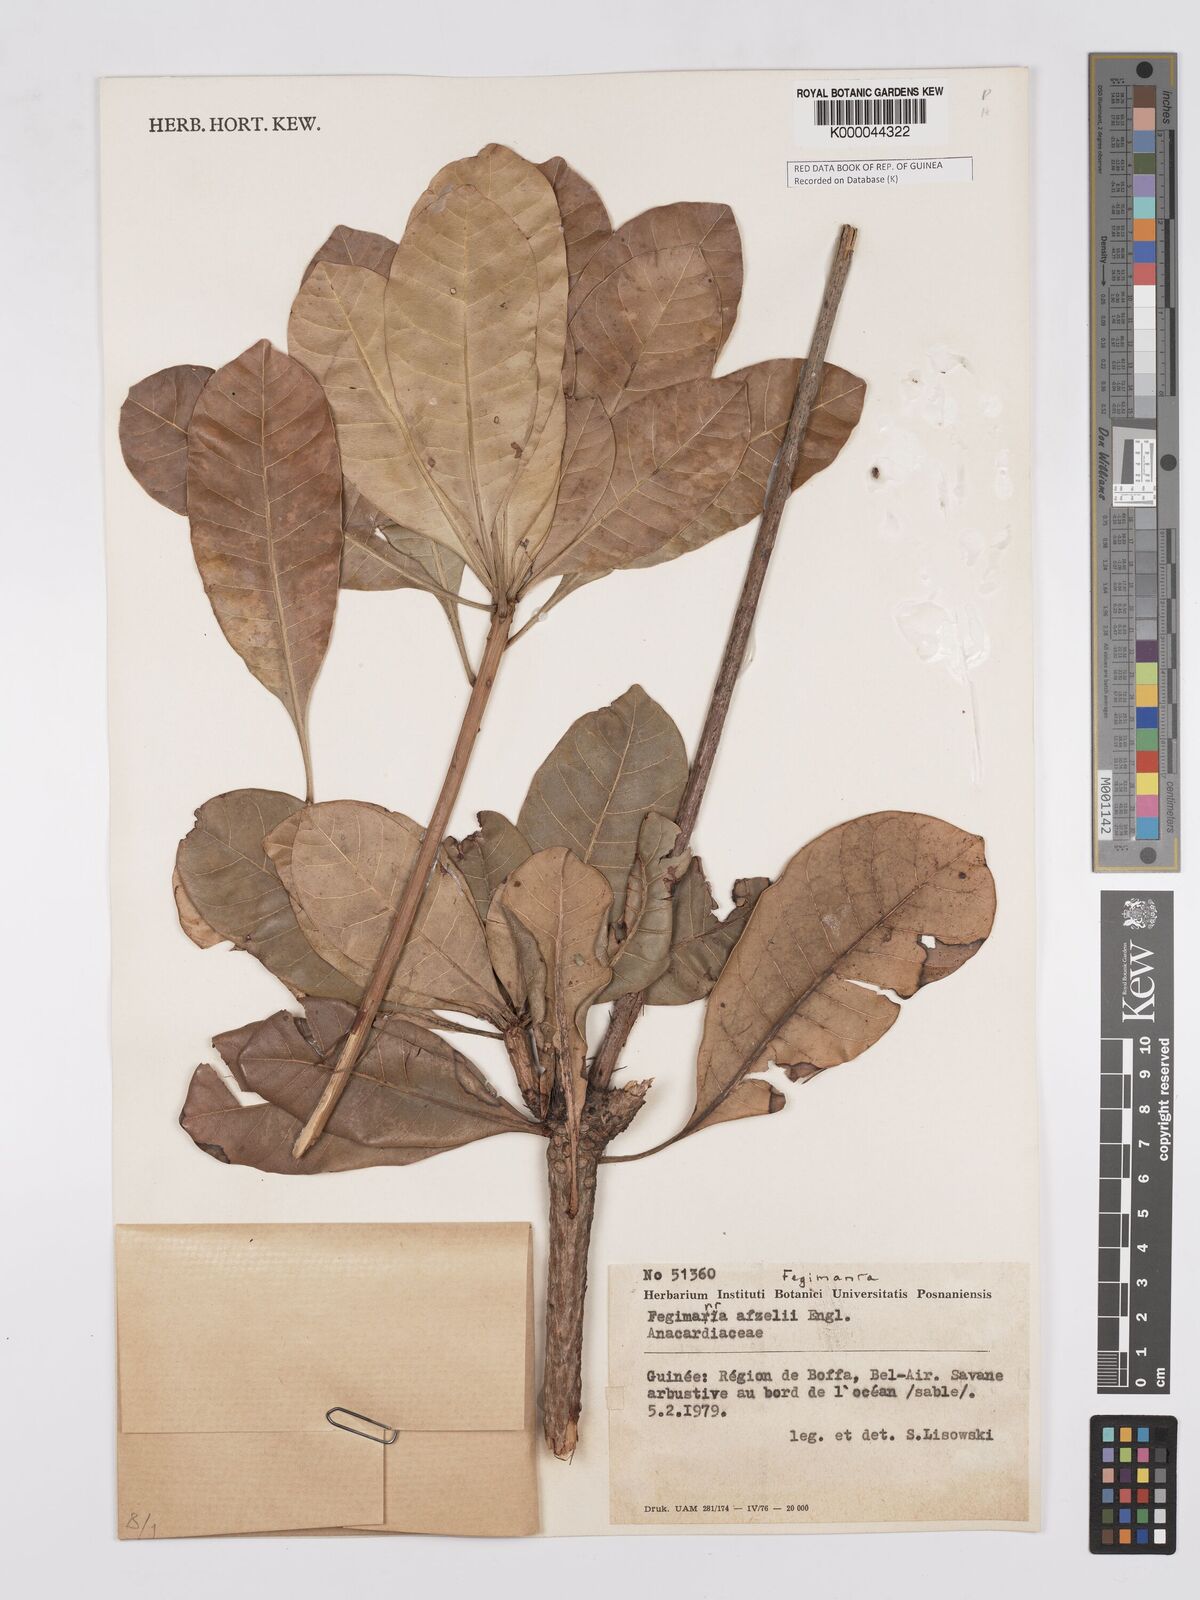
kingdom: Plantae
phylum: Tracheophyta
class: Magnoliopsida
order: Sapindales
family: Anacardiaceae
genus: Fegimanra
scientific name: Fegimanra afzelii
